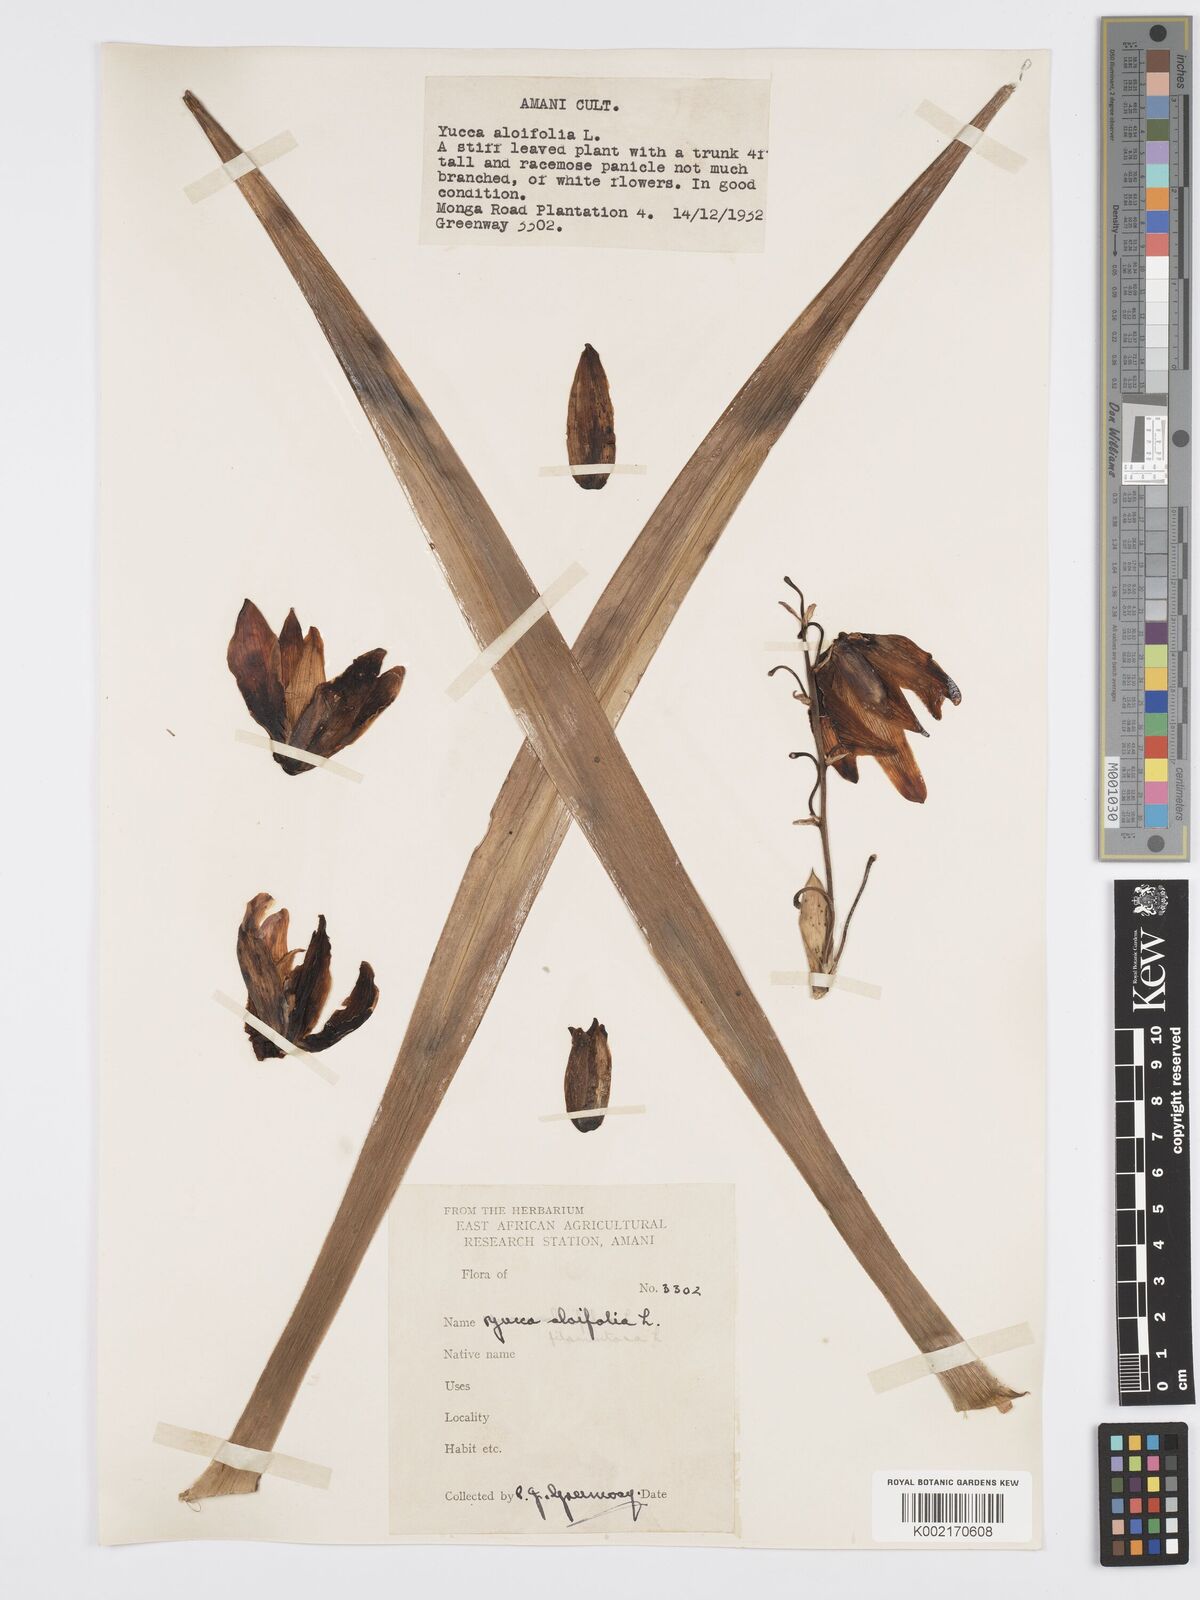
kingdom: Plantae
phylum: Tracheophyta
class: Liliopsida
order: Asparagales
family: Asparagaceae
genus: Yucca
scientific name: Yucca aloifolia
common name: Aloe yucca
